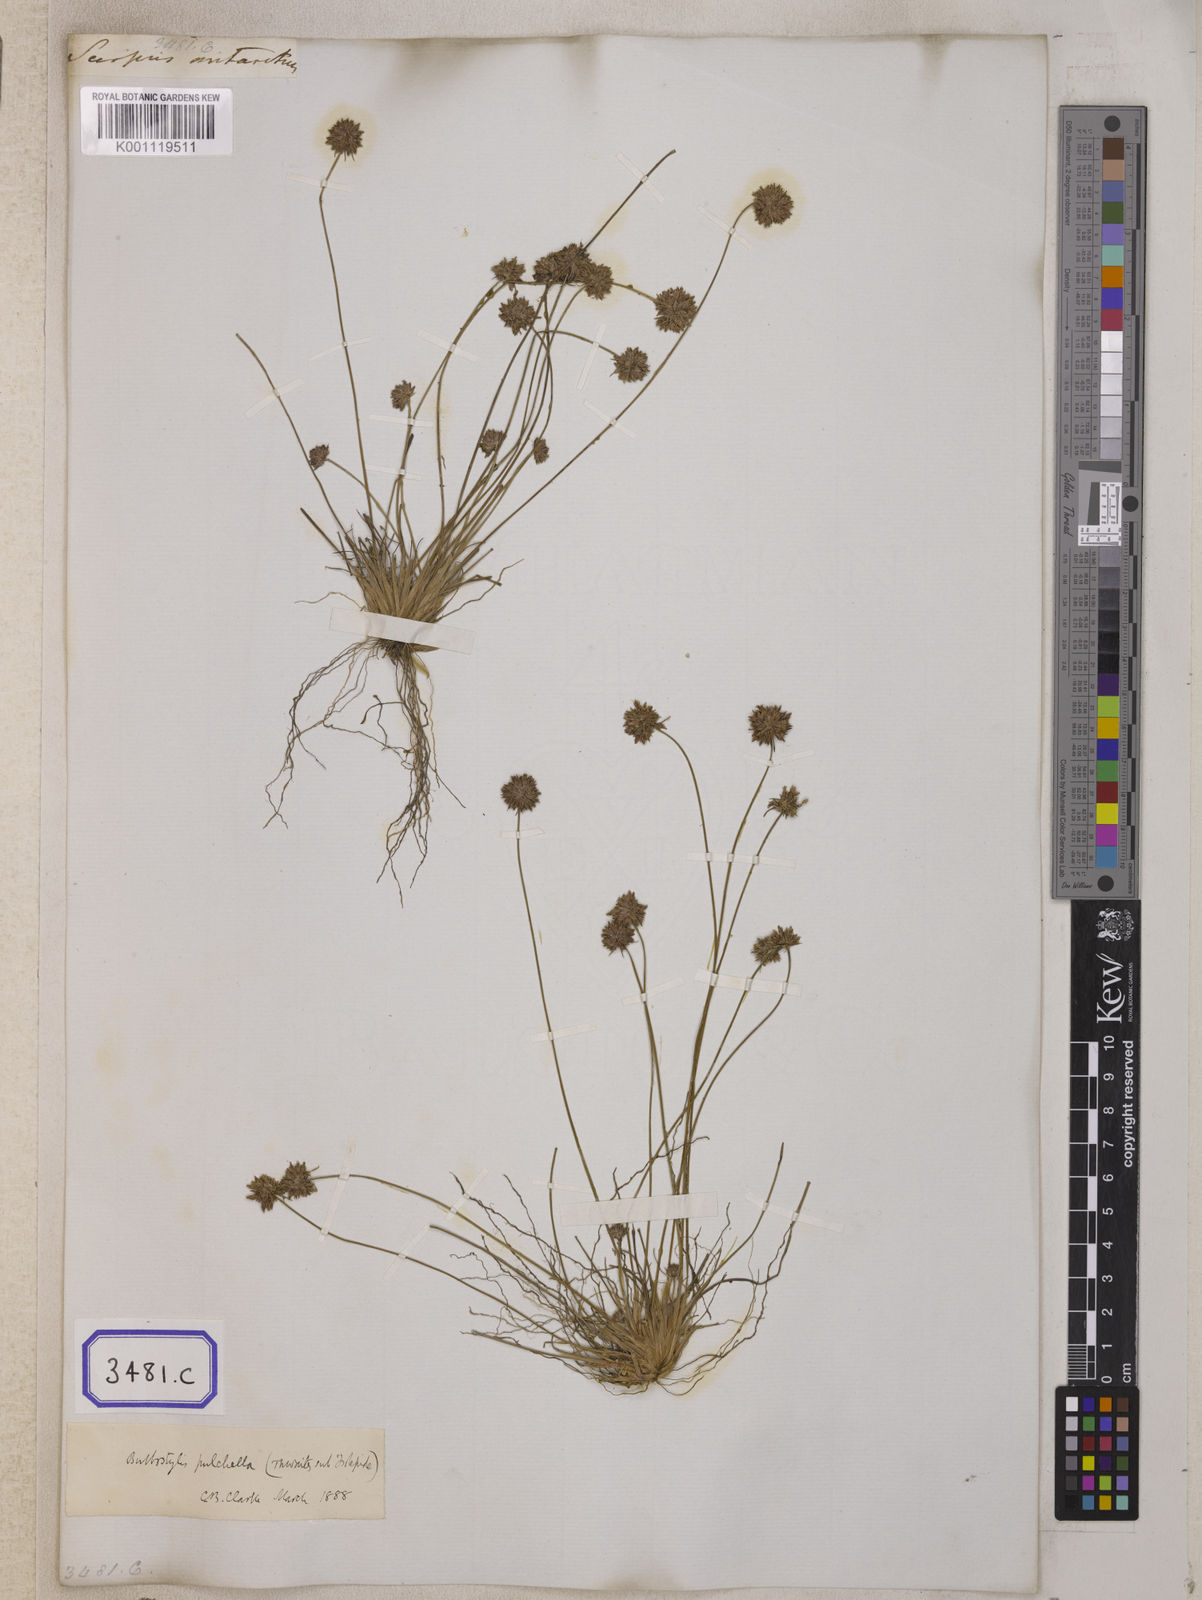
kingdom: Plantae
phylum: Tracheophyta
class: Liliopsida
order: Poales
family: Cyperaceae
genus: Isolepis
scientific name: Isolepis
